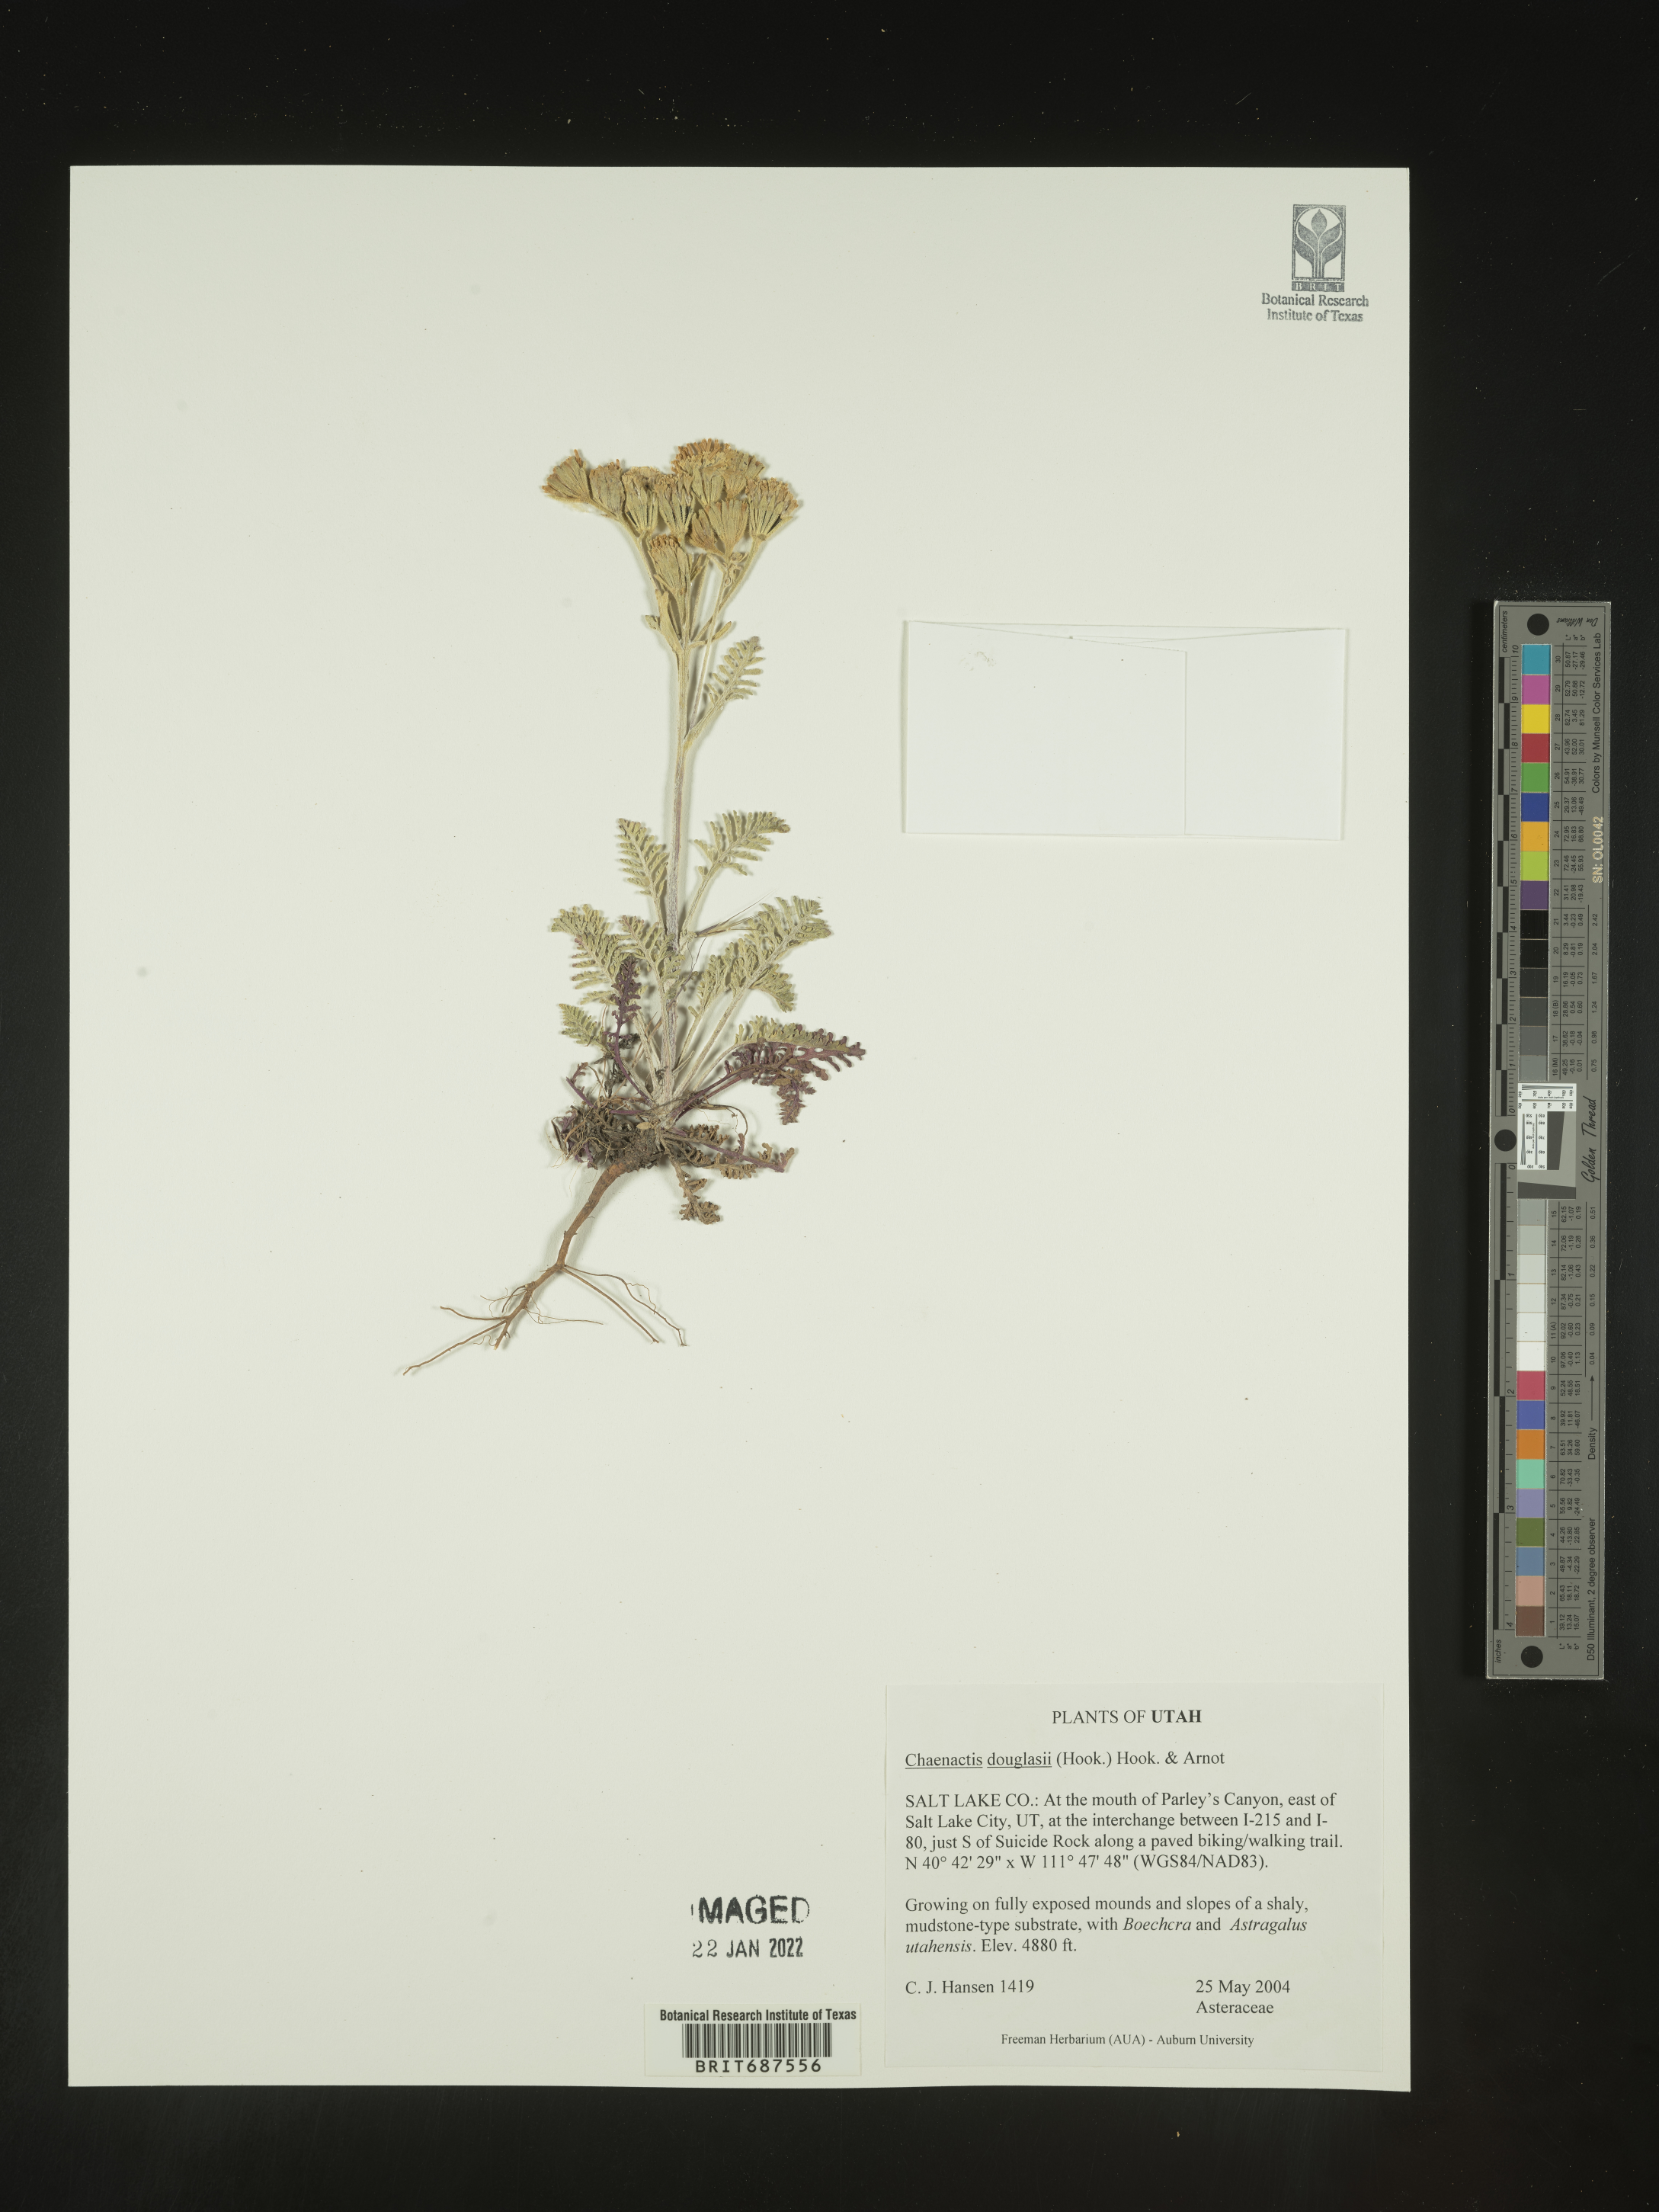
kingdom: Plantae
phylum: Tracheophyta
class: Magnoliopsida
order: Asterales
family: Asteraceae
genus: Chaenactis
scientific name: Chaenactis douglasii
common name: Hoary pincushion
